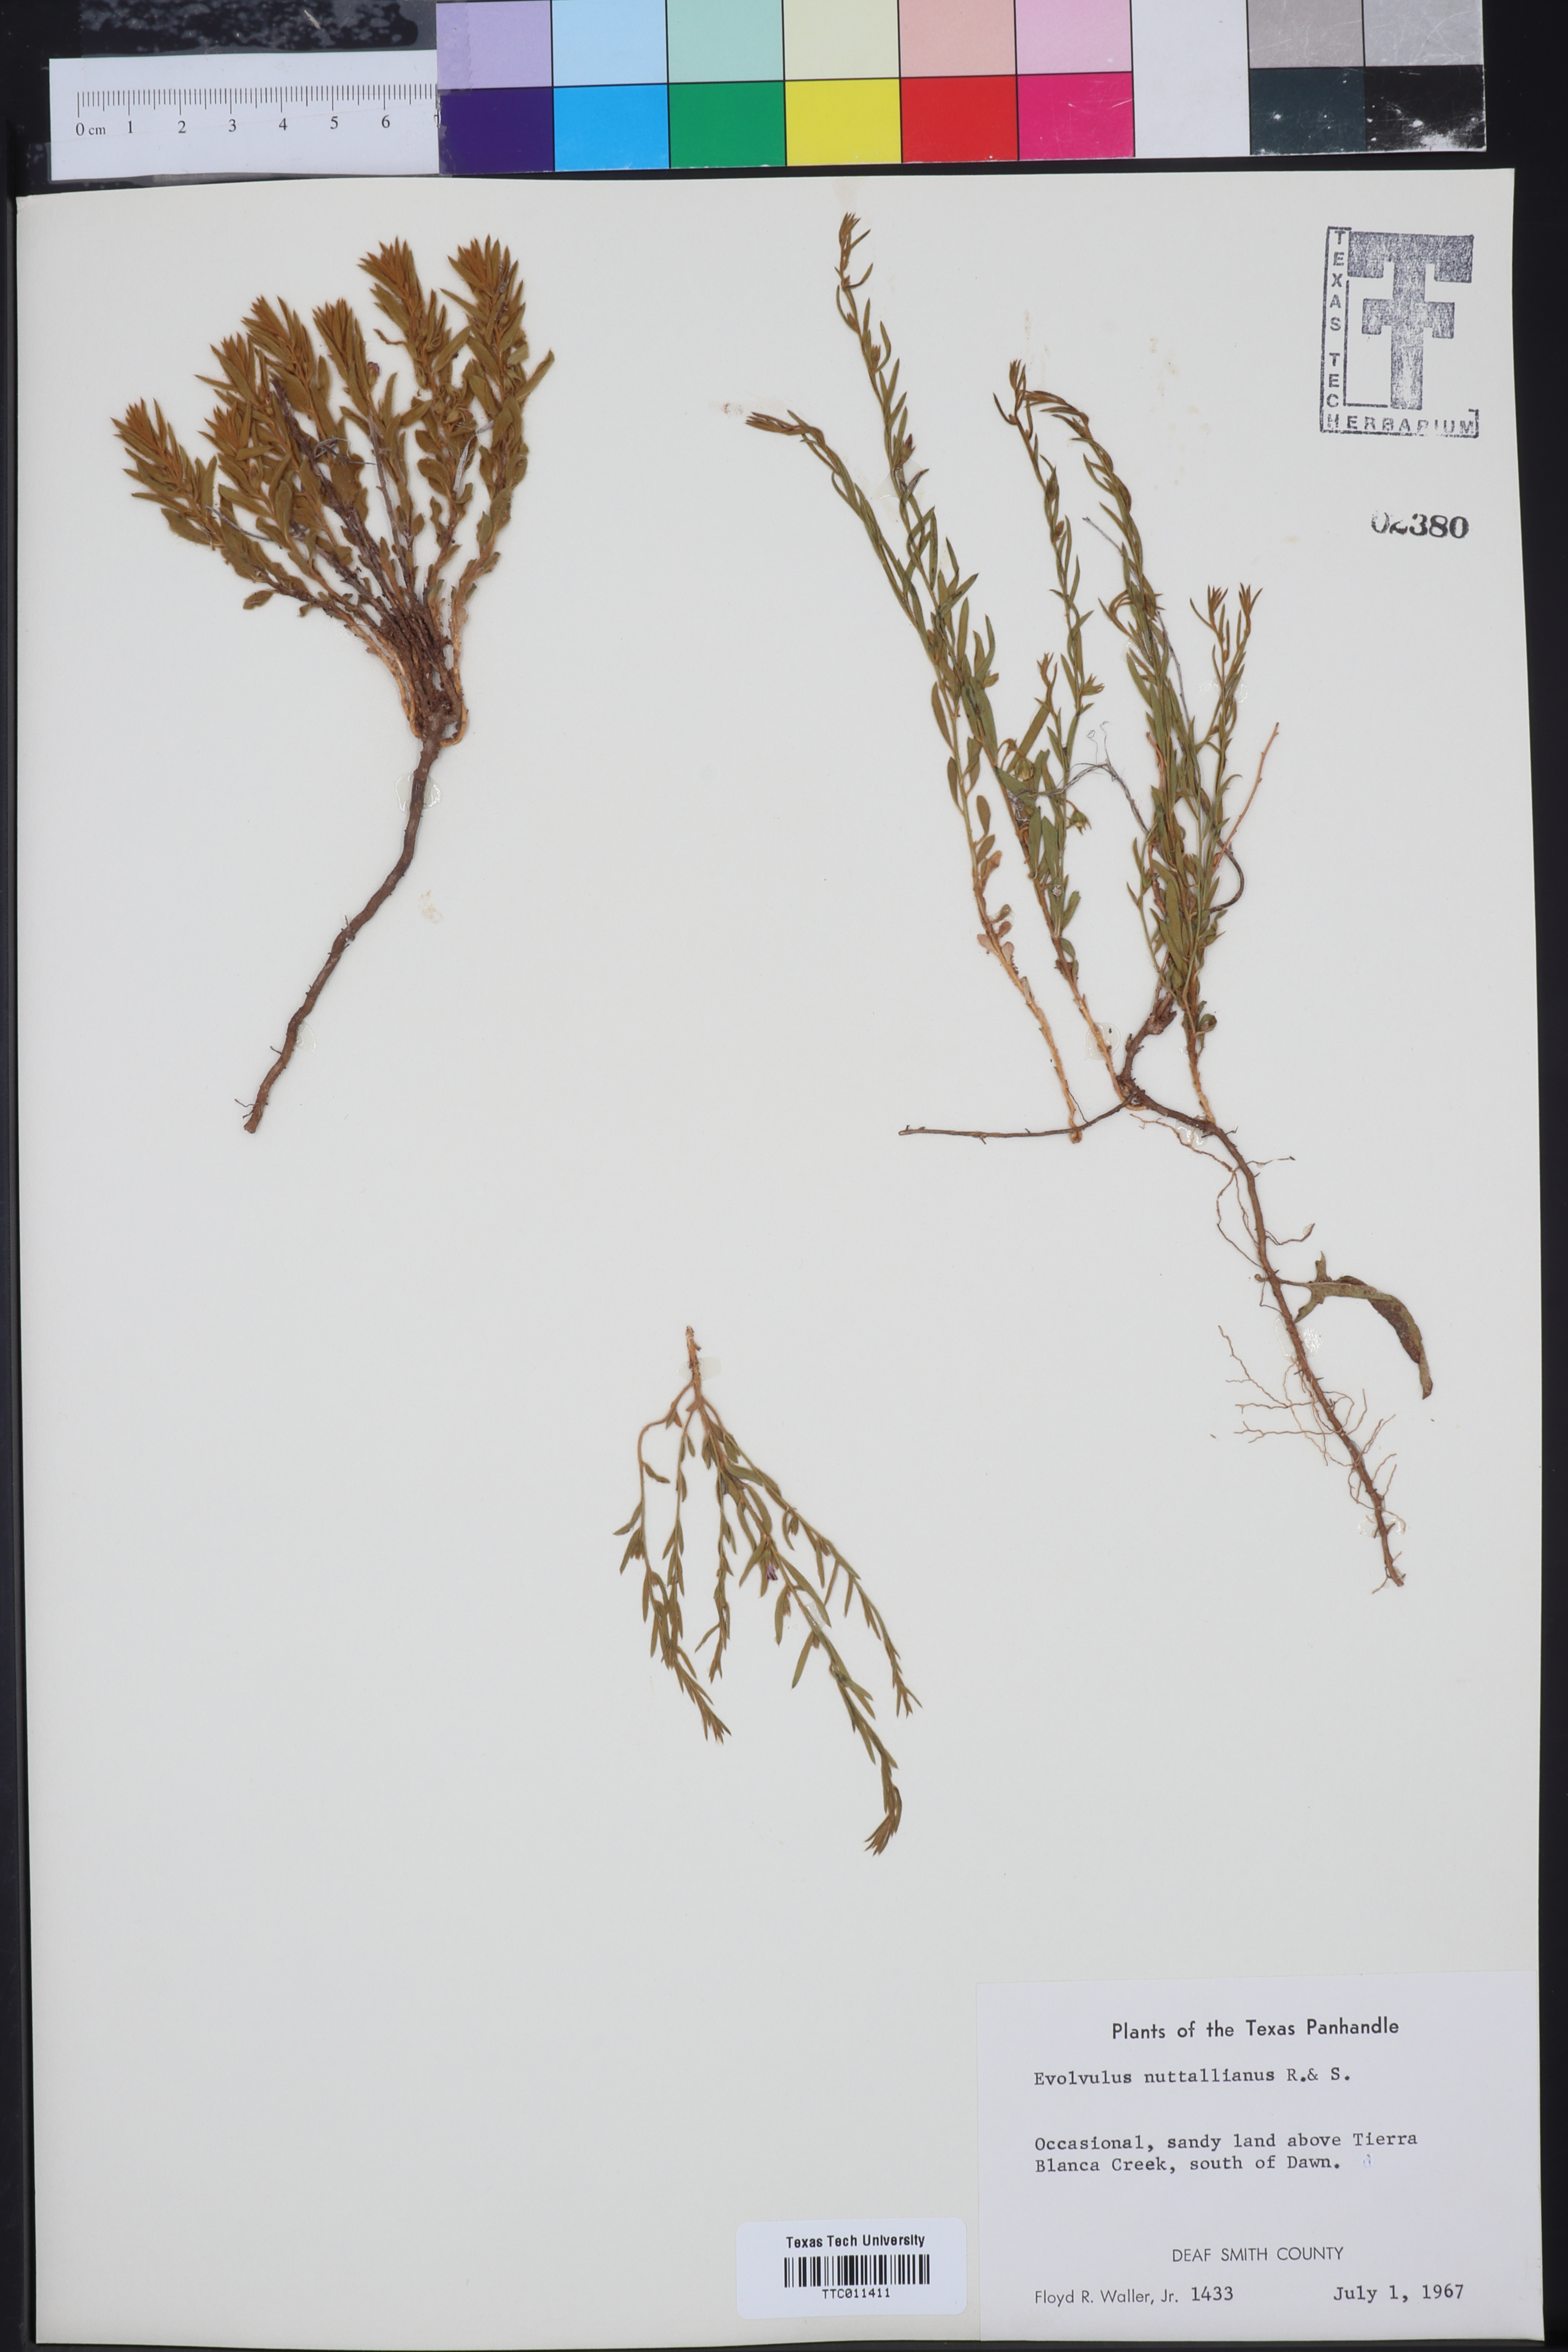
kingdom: Plantae
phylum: Tracheophyta
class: Magnoliopsida
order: Solanales
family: Convolvulaceae
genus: Evolvulus
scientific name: Evolvulus nuttallianus
